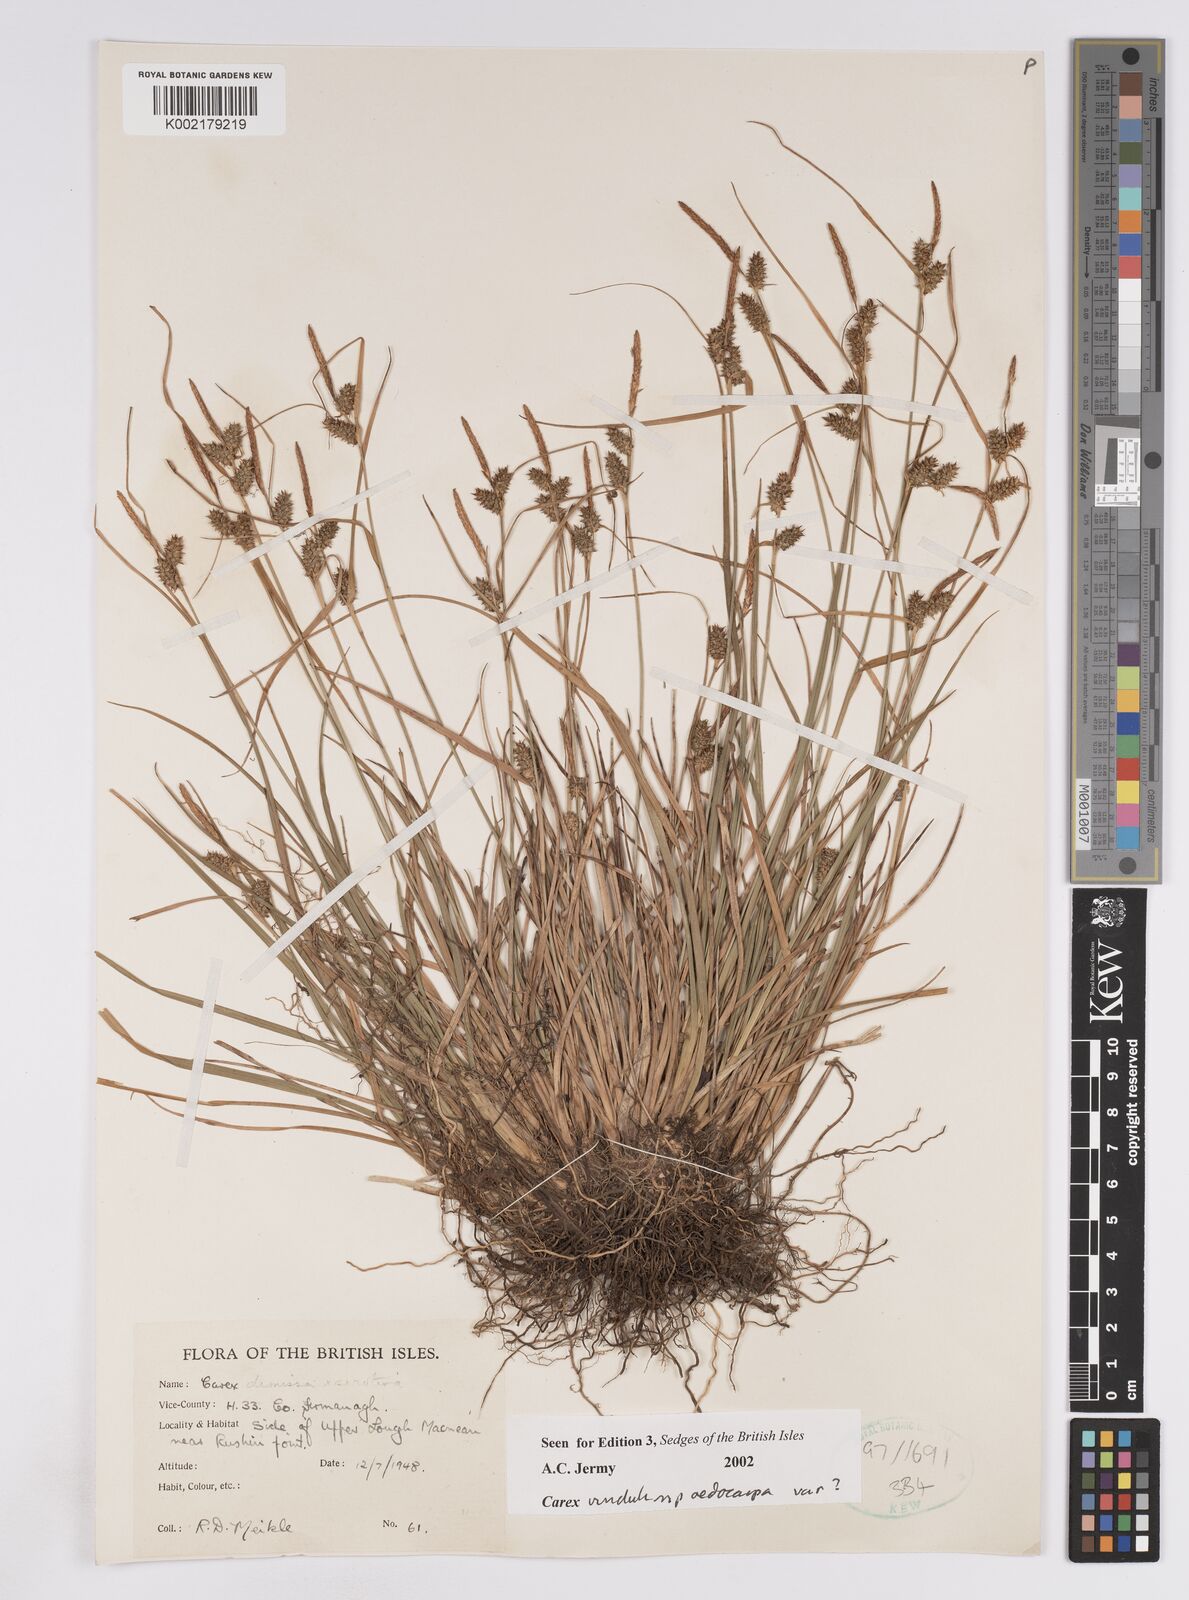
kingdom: Plantae
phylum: Tracheophyta
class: Liliopsida
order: Poales
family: Cyperaceae
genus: Carex
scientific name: Carex demissa
